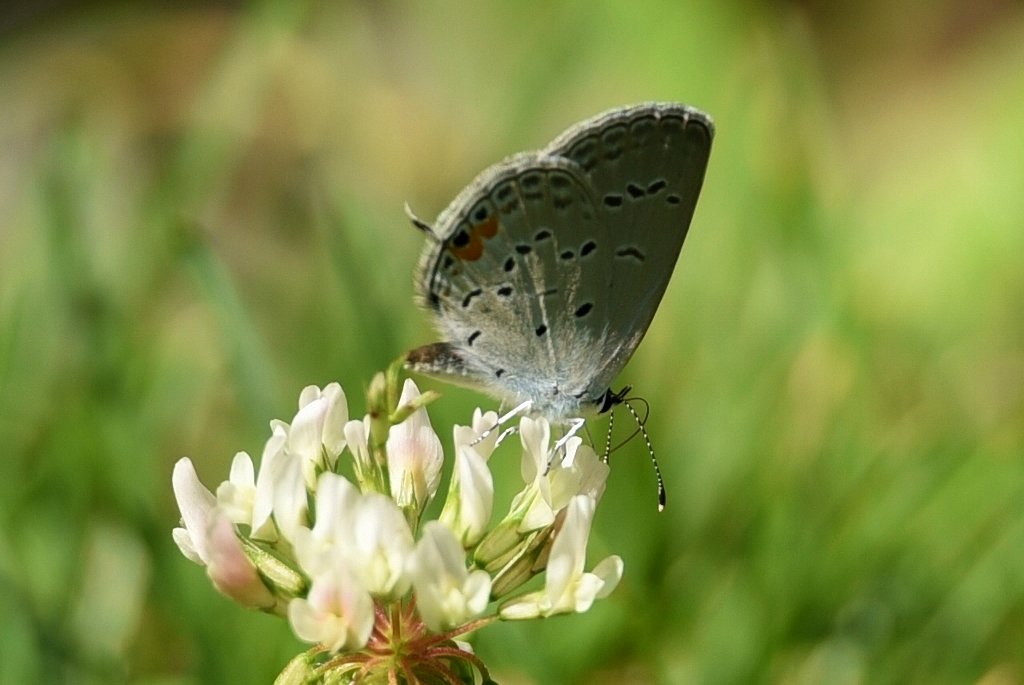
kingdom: Animalia
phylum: Arthropoda
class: Insecta
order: Lepidoptera
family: Lycaenidae
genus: Elkalyce
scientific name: Elkalyce comyntas
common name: Eastern Tailed-Blue
